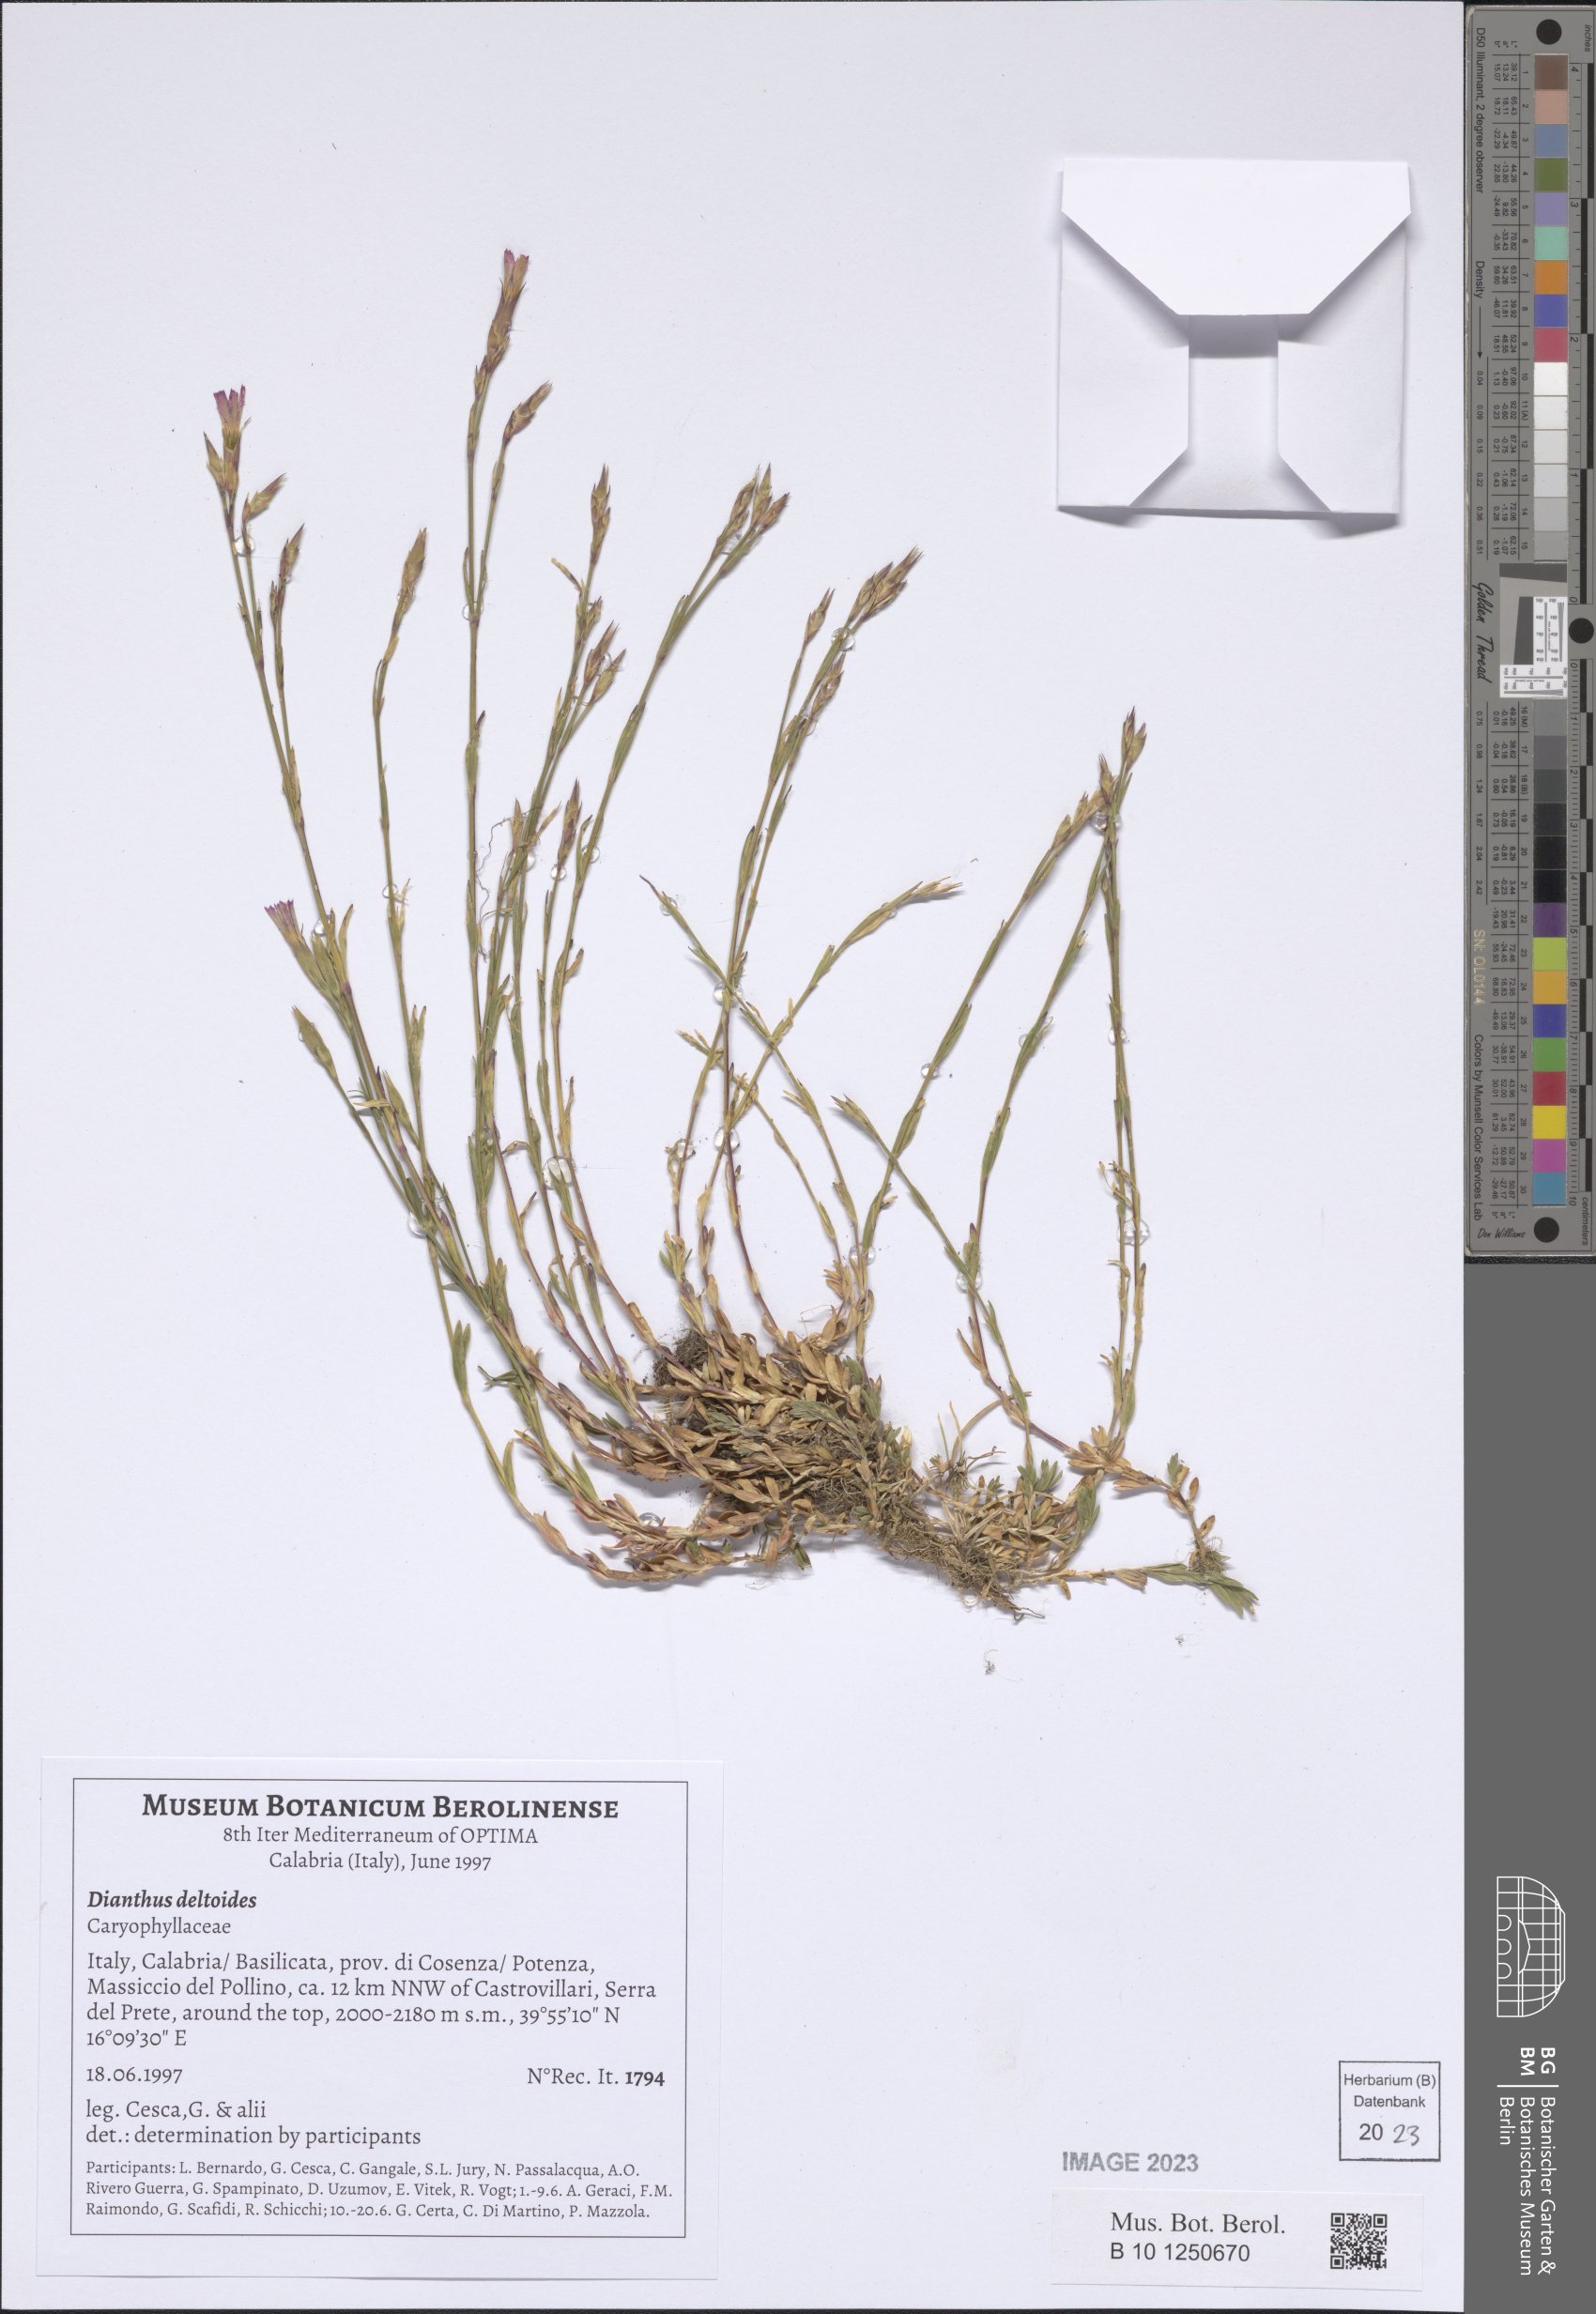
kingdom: Plantae
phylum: Tracheophyta
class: Magnoliopsida
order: Caryophyllales
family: Caryophyllaceae
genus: Dianthus
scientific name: Dianthus deltoides
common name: Maiden pink
